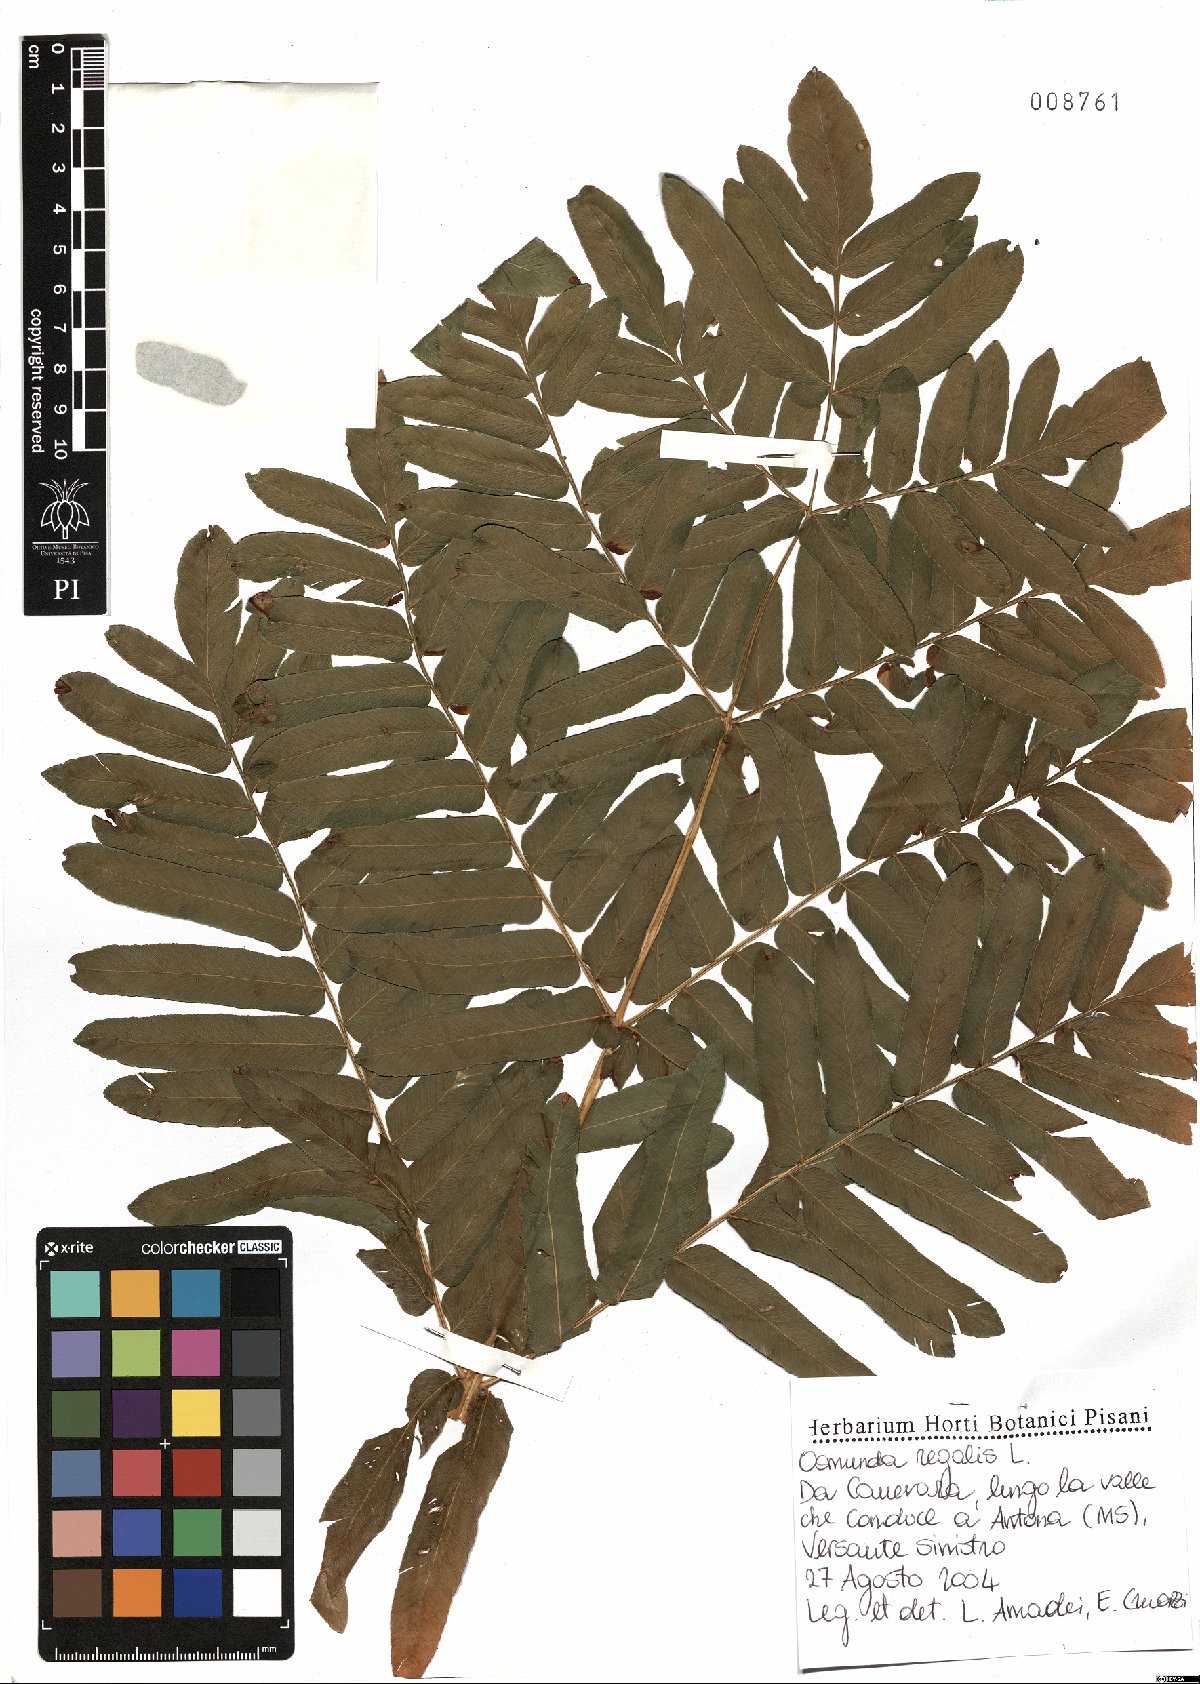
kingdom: Plantae
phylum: Tracheophyta
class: Polypodiopsida
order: Osmundales
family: Osmundaceae
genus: Osmunda
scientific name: Osmunda regalis
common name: Royal fern
